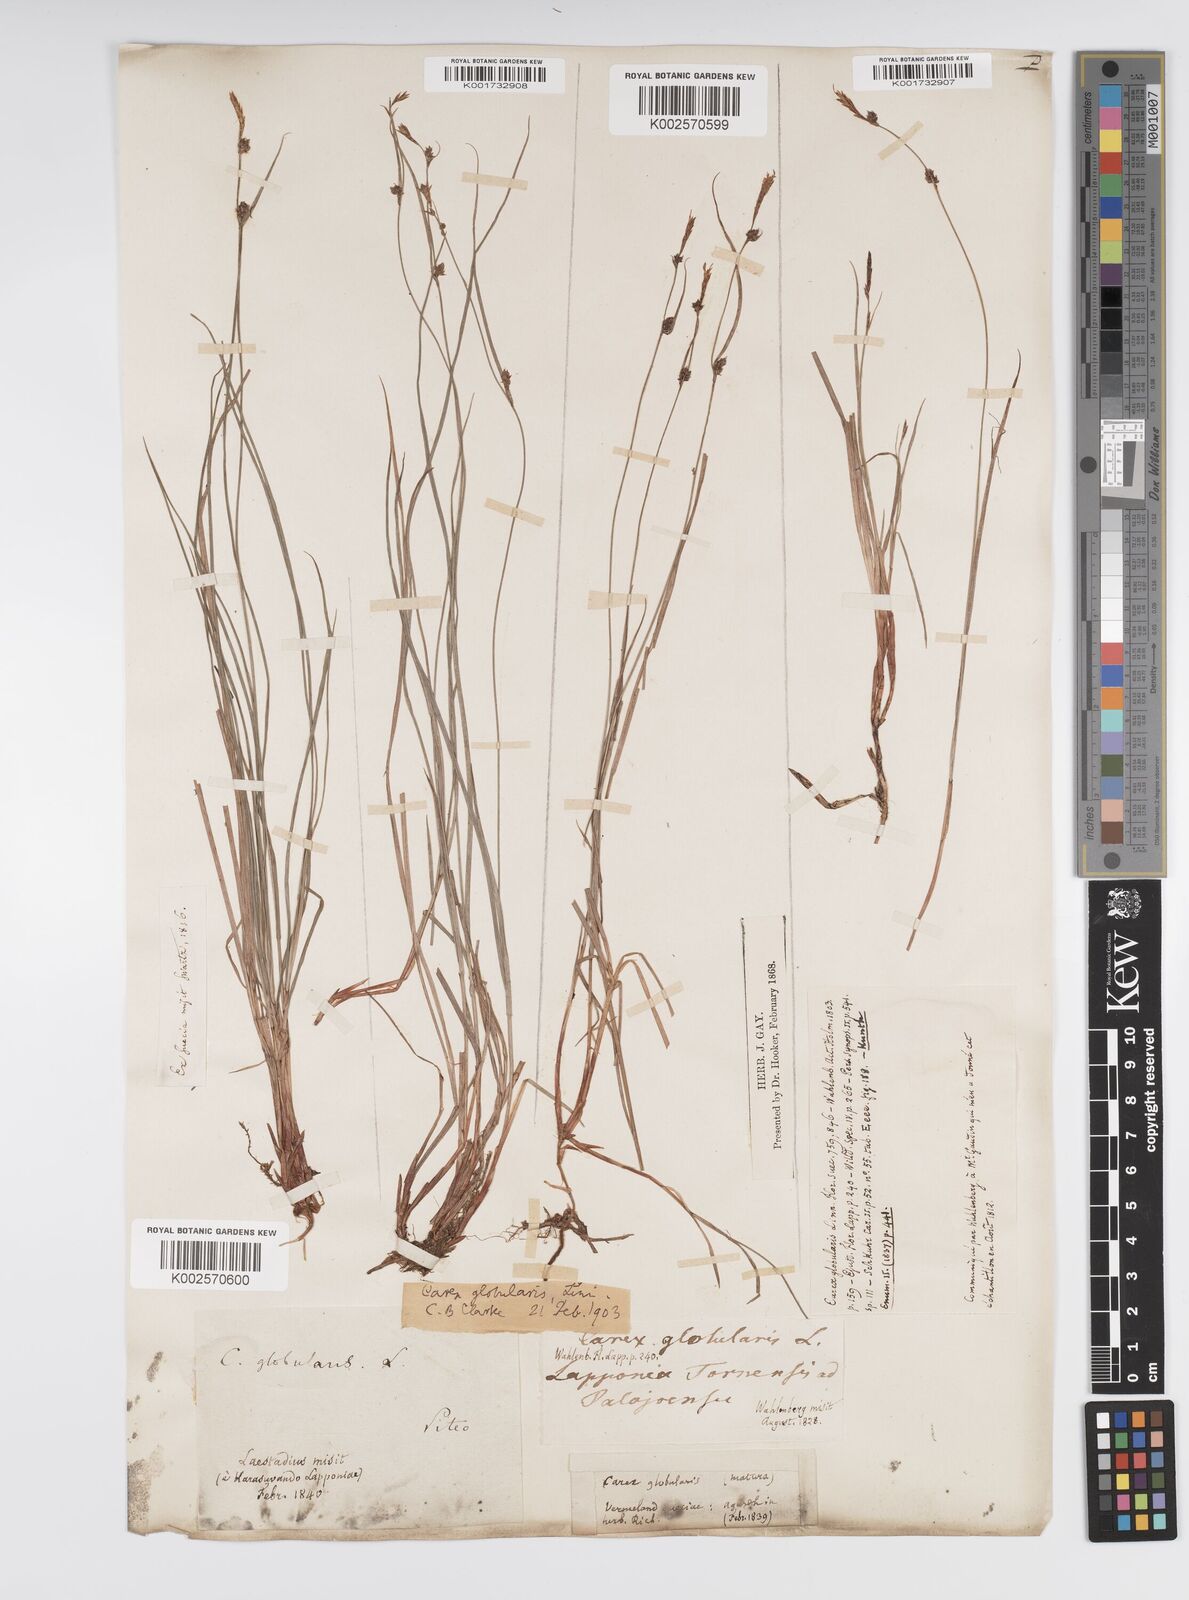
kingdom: Plantae
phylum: Tracheophyta
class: Liliopsida
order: Poales
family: Cyperaceae
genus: Carex
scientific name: Carex globularis
